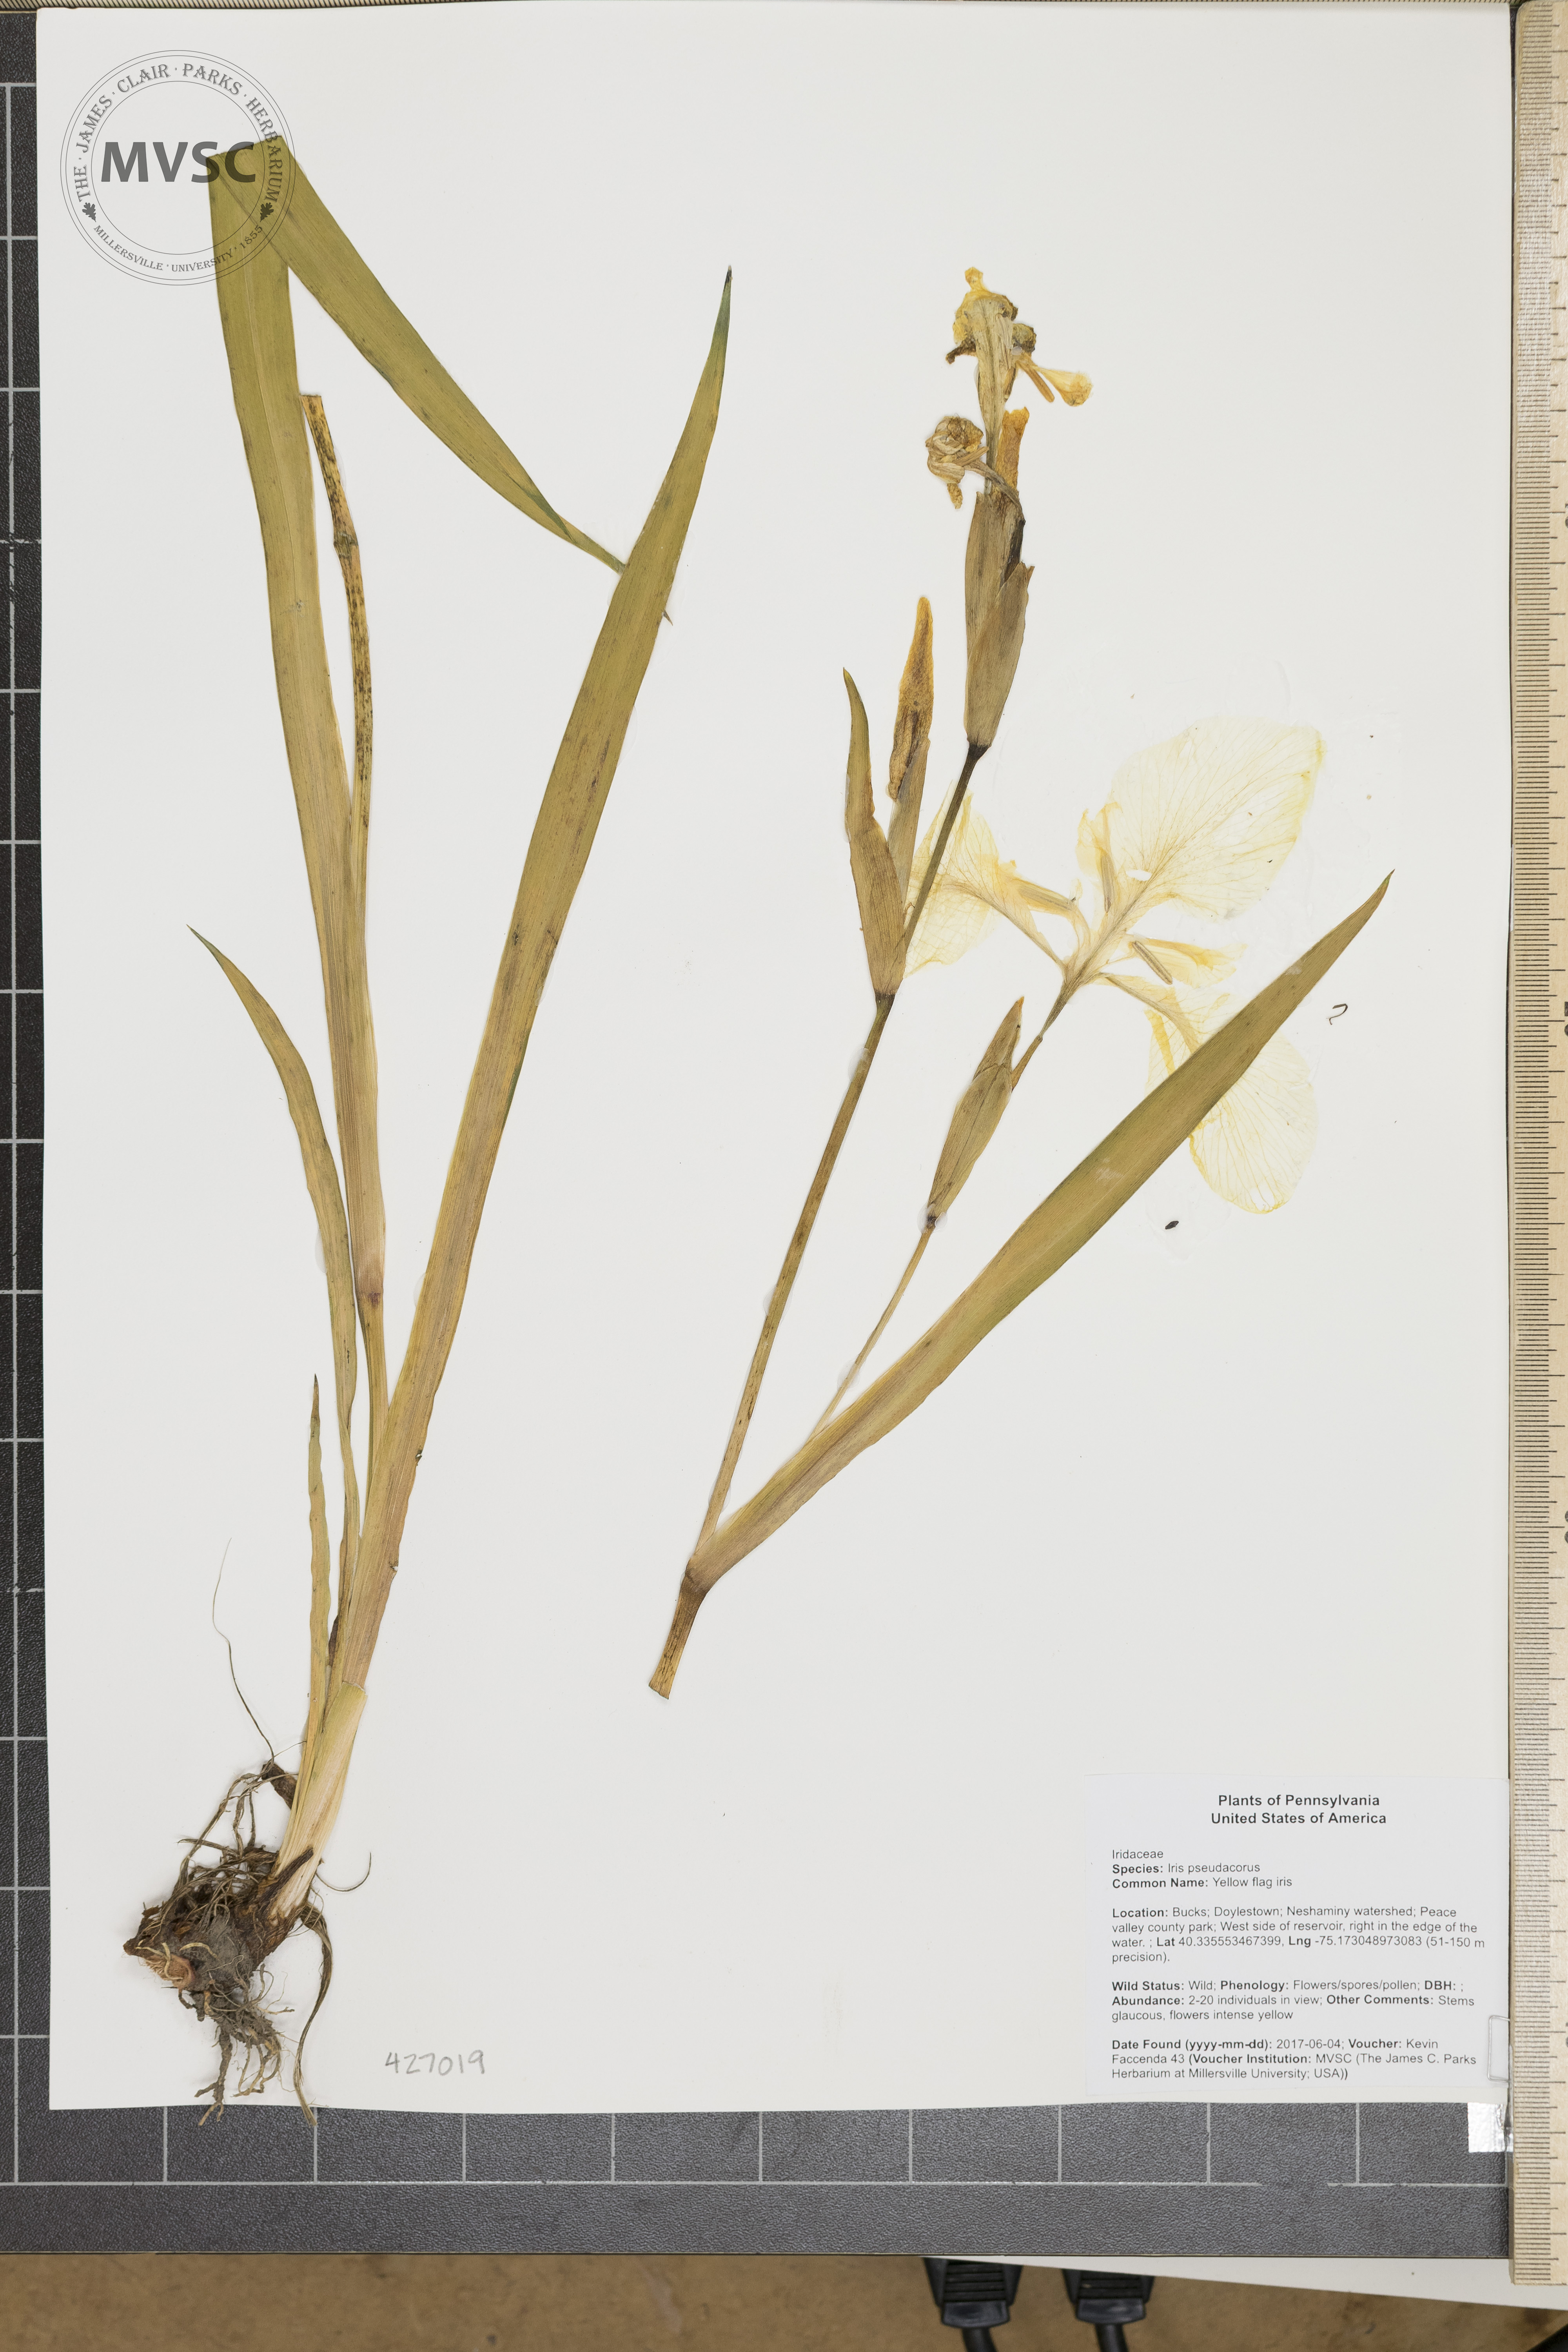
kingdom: Plantae
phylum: Tracheophyta
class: Liliopsida
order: Asparagales
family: Iridaceae
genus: Iris
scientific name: Iris pseudacorus
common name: Yellow flag iris
